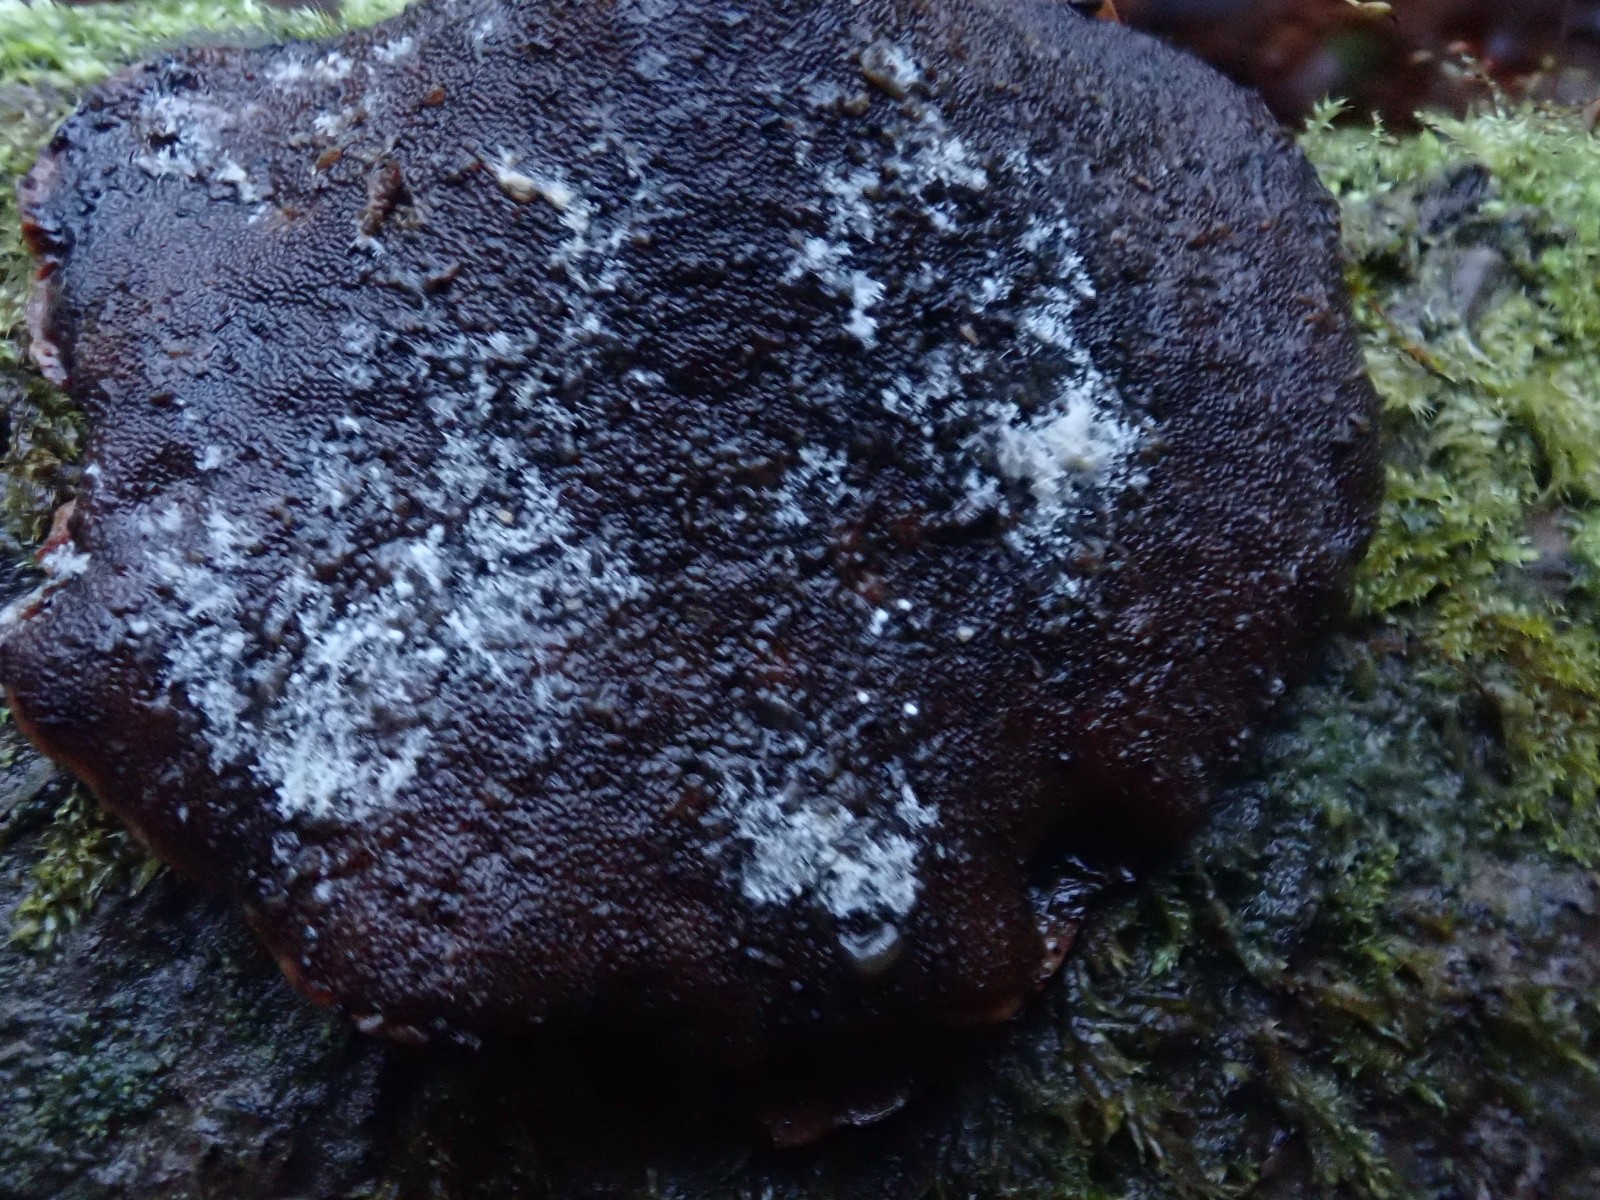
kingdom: Fungi
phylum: Basidiomycota
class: Agaricomycetes
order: Polyporales
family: Polyporaceae
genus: Cerioporus
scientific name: Cerioporus varius
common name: foranderlig stilkporesvamp
